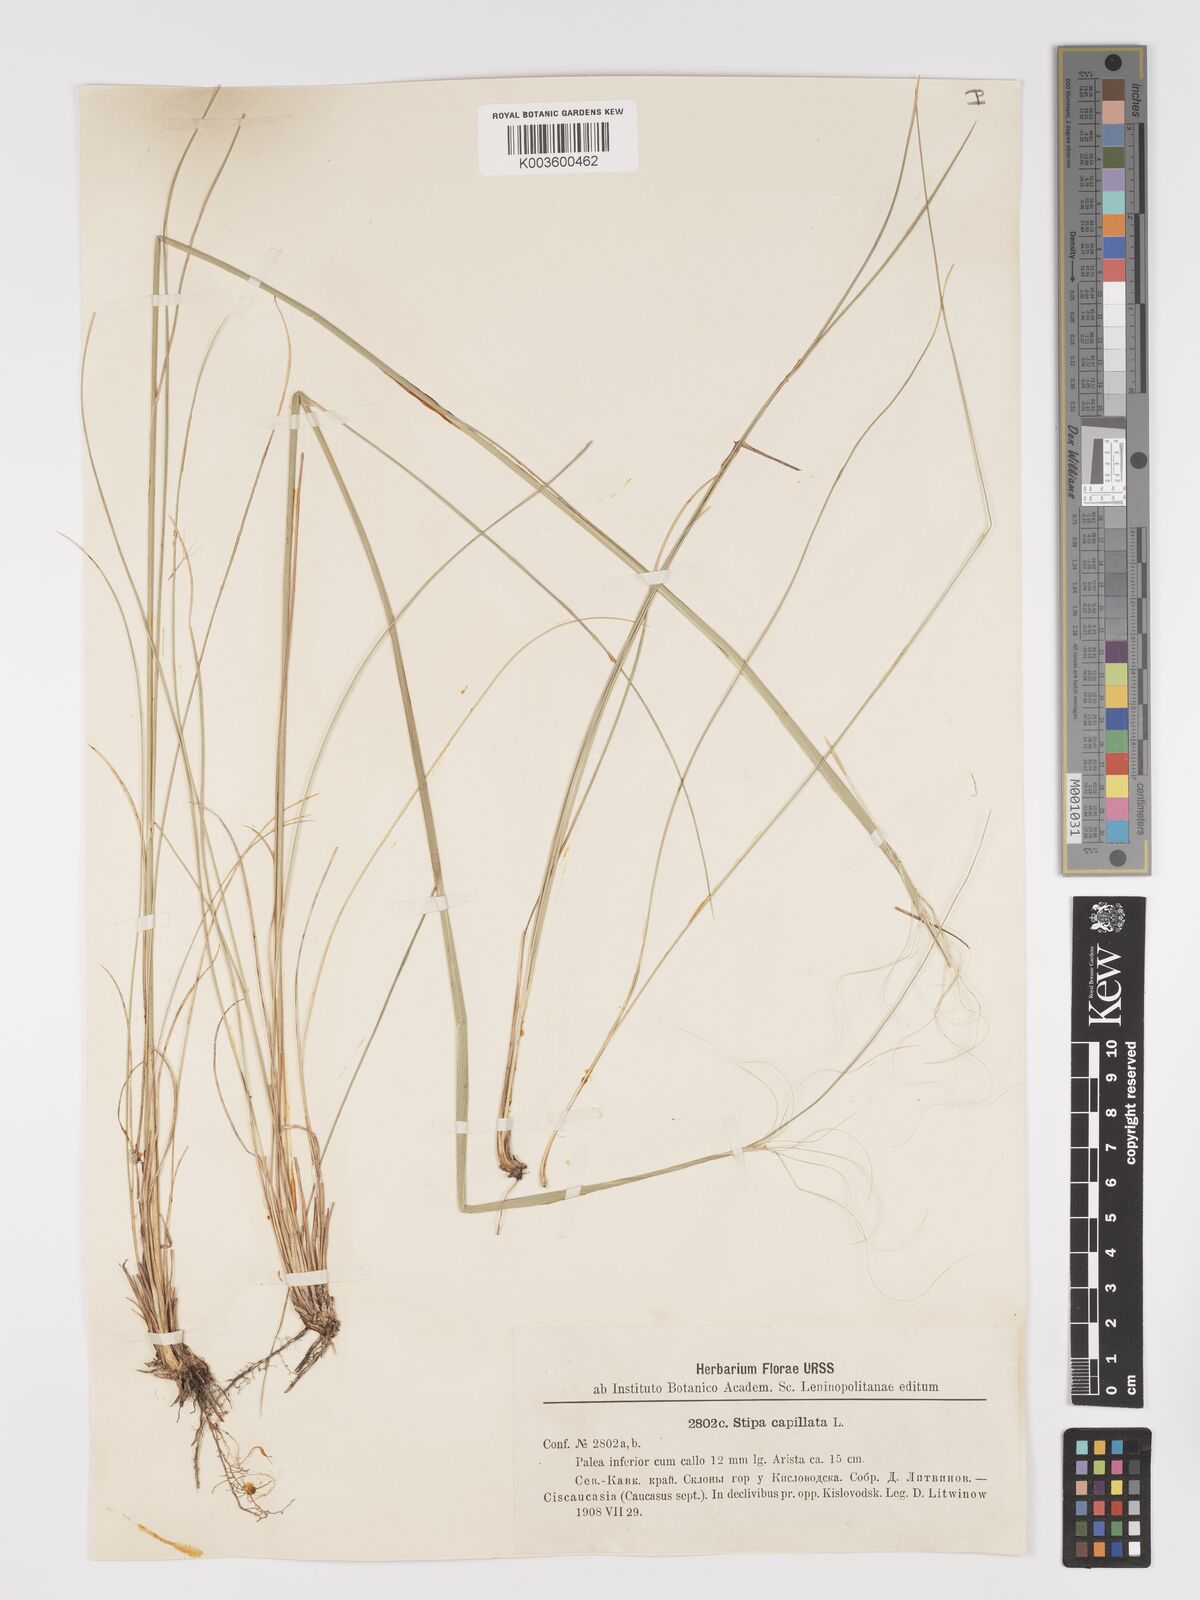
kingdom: Plantae
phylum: Tracheophyta
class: Liliopsida
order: Poales
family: Poaceae
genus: Stipa
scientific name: Stipa capillata
